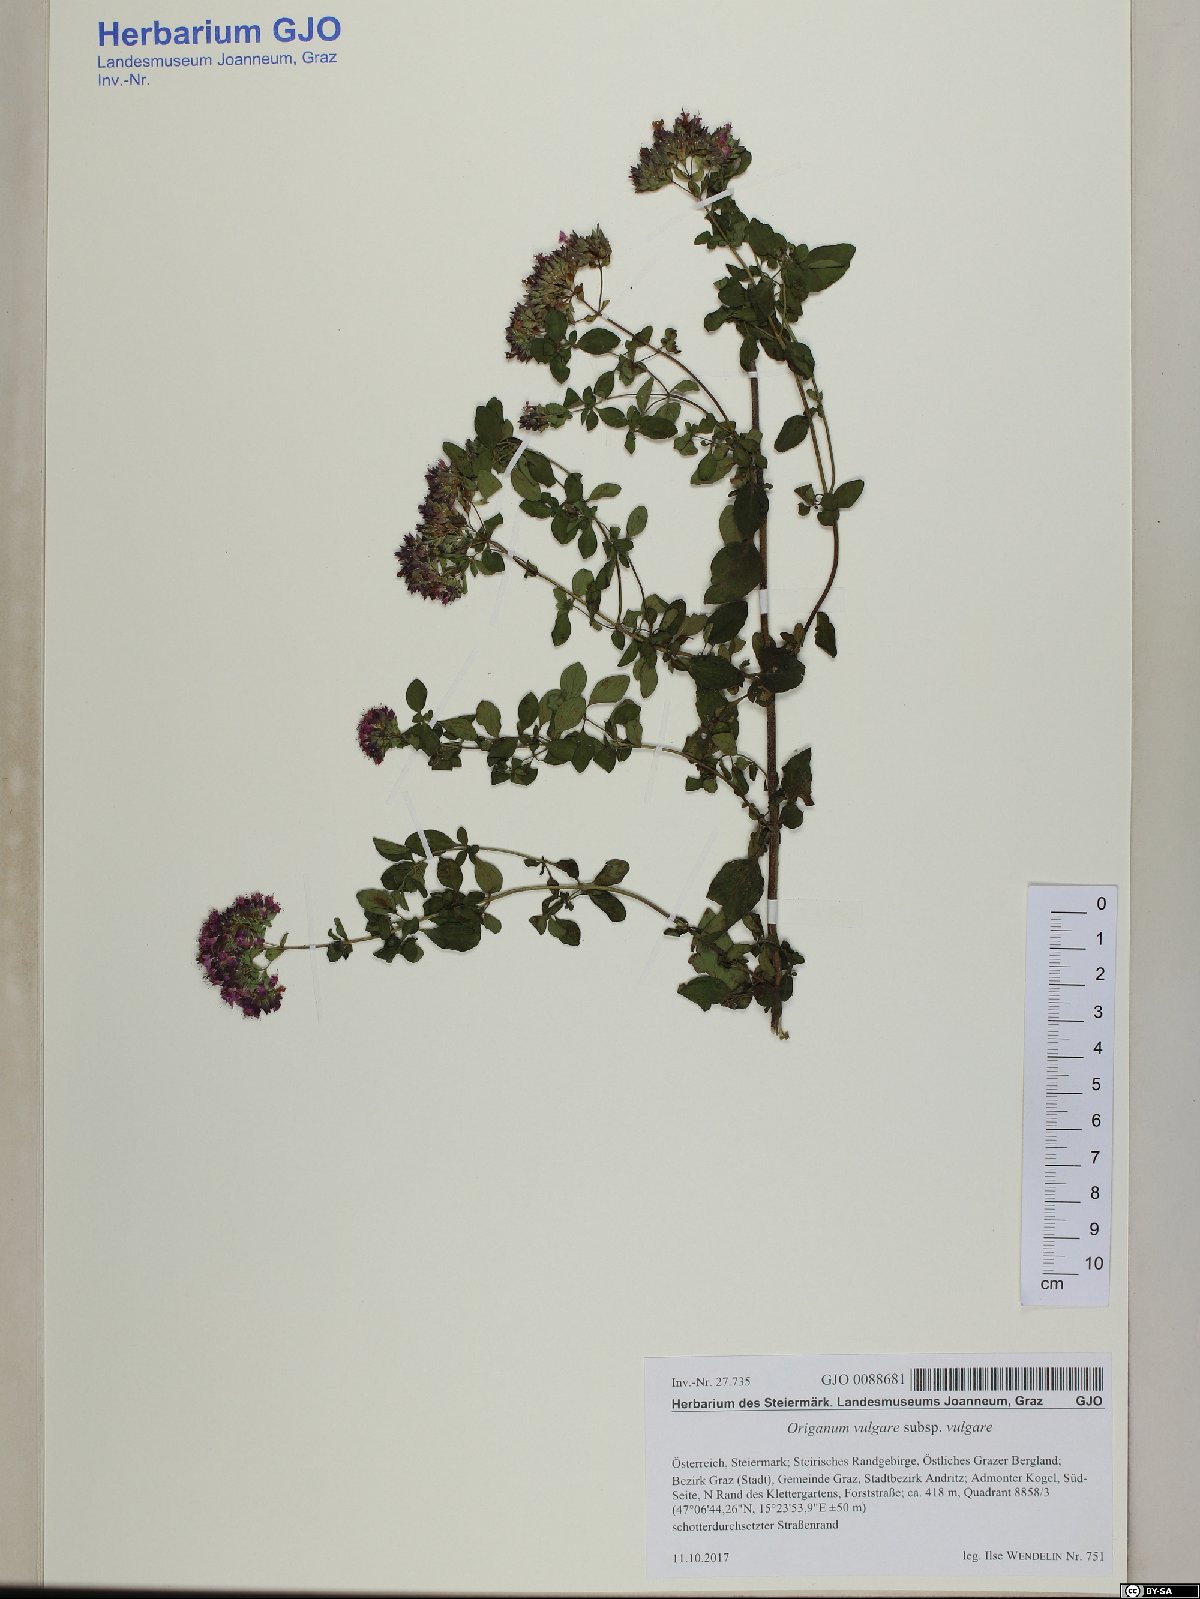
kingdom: Plantae
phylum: Tracheophyta
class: Magnoliopsida
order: Lamiales
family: Lamiaceae
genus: Origanum
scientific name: Origanum vulgare
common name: Wild marjoram
